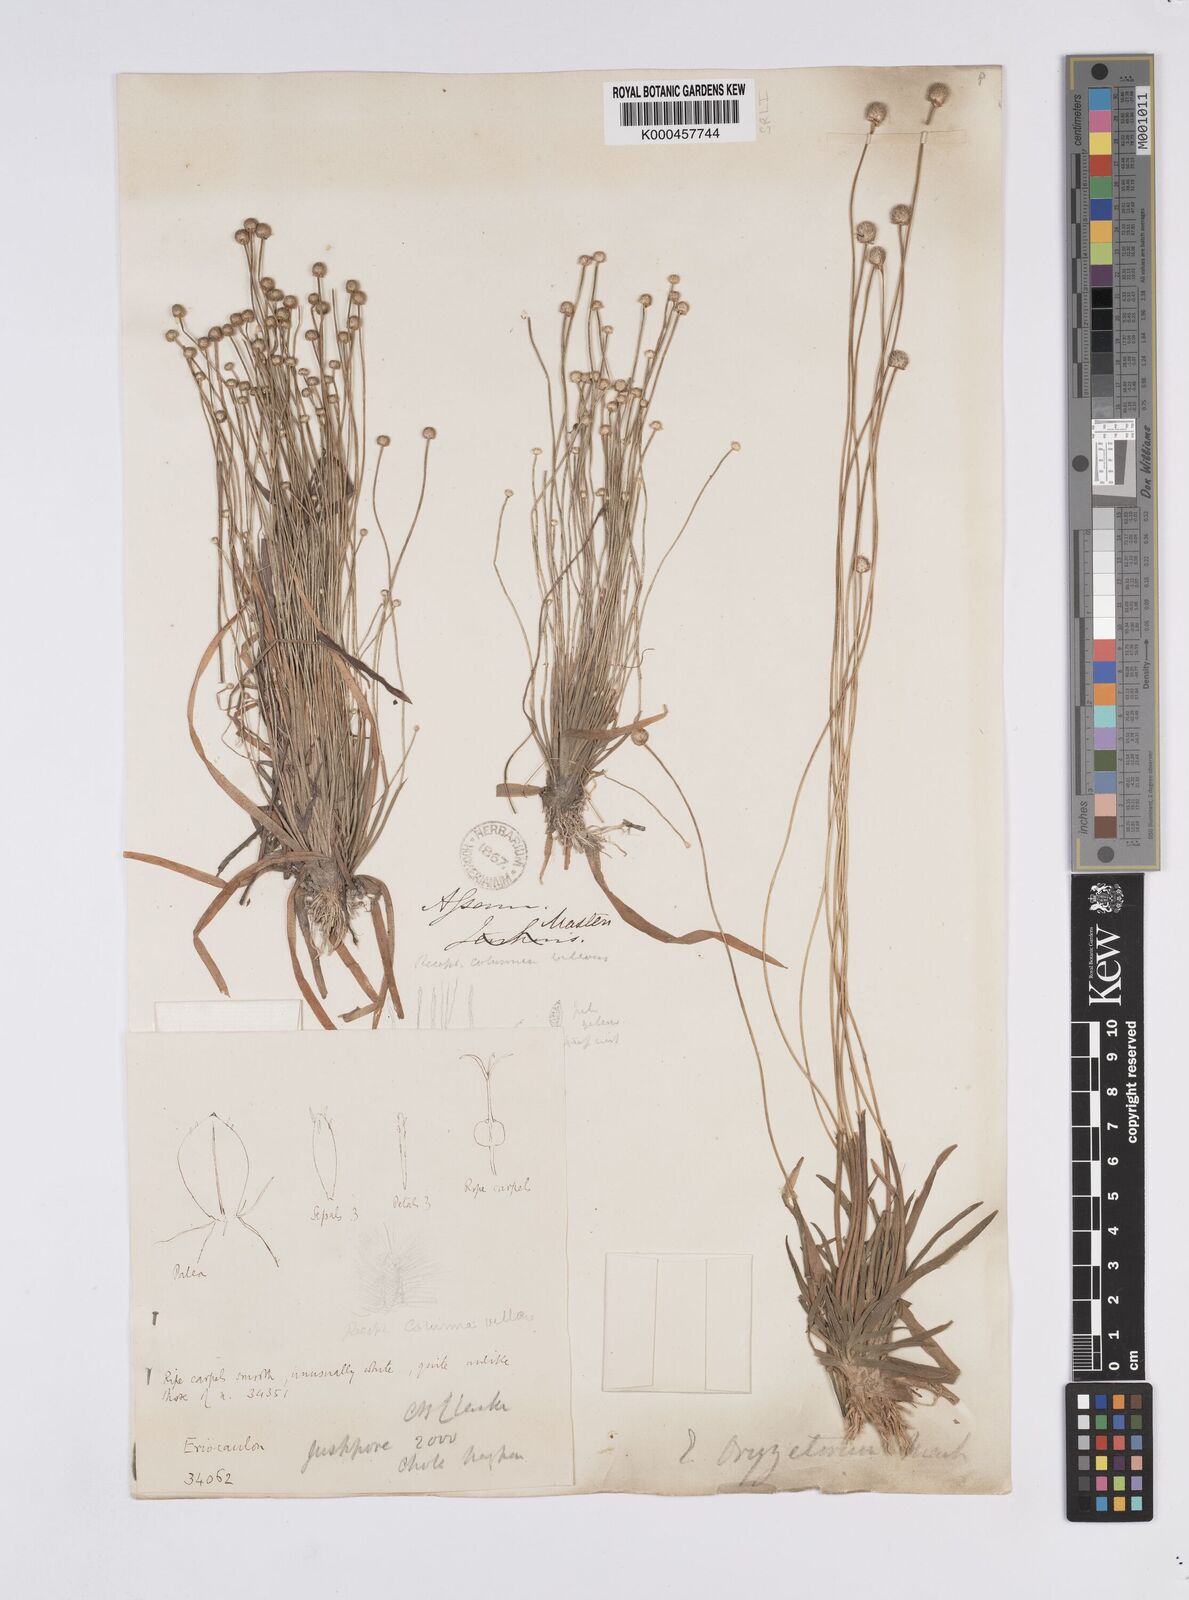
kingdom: Plantae
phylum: Tracheophyta
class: Liliopsida
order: Poales
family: Eriocaulaceae
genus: Eriocaulon
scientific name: Eriocaulon oryzetorum
